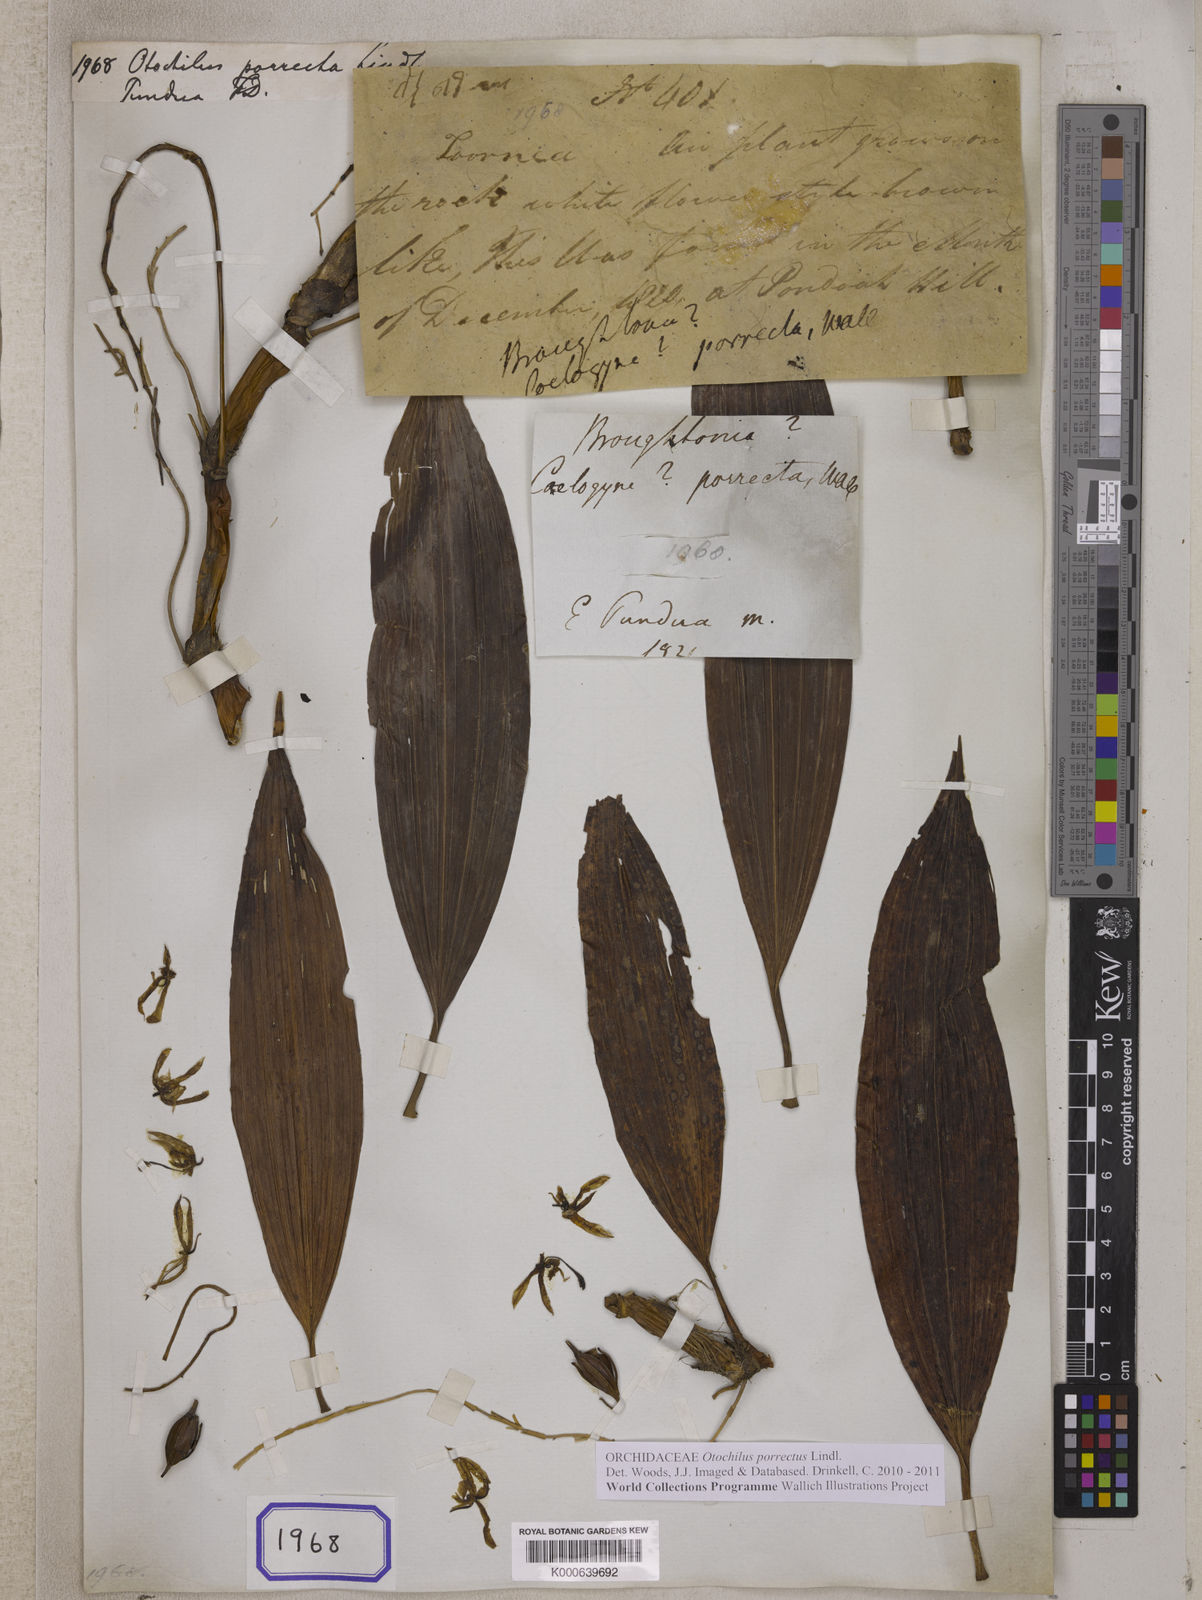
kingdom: Plantae
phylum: Tracheophyta
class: Liliopsida
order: Asparagales
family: Orchidaceae
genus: Coelogyne
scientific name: Coelogyne porrecta
